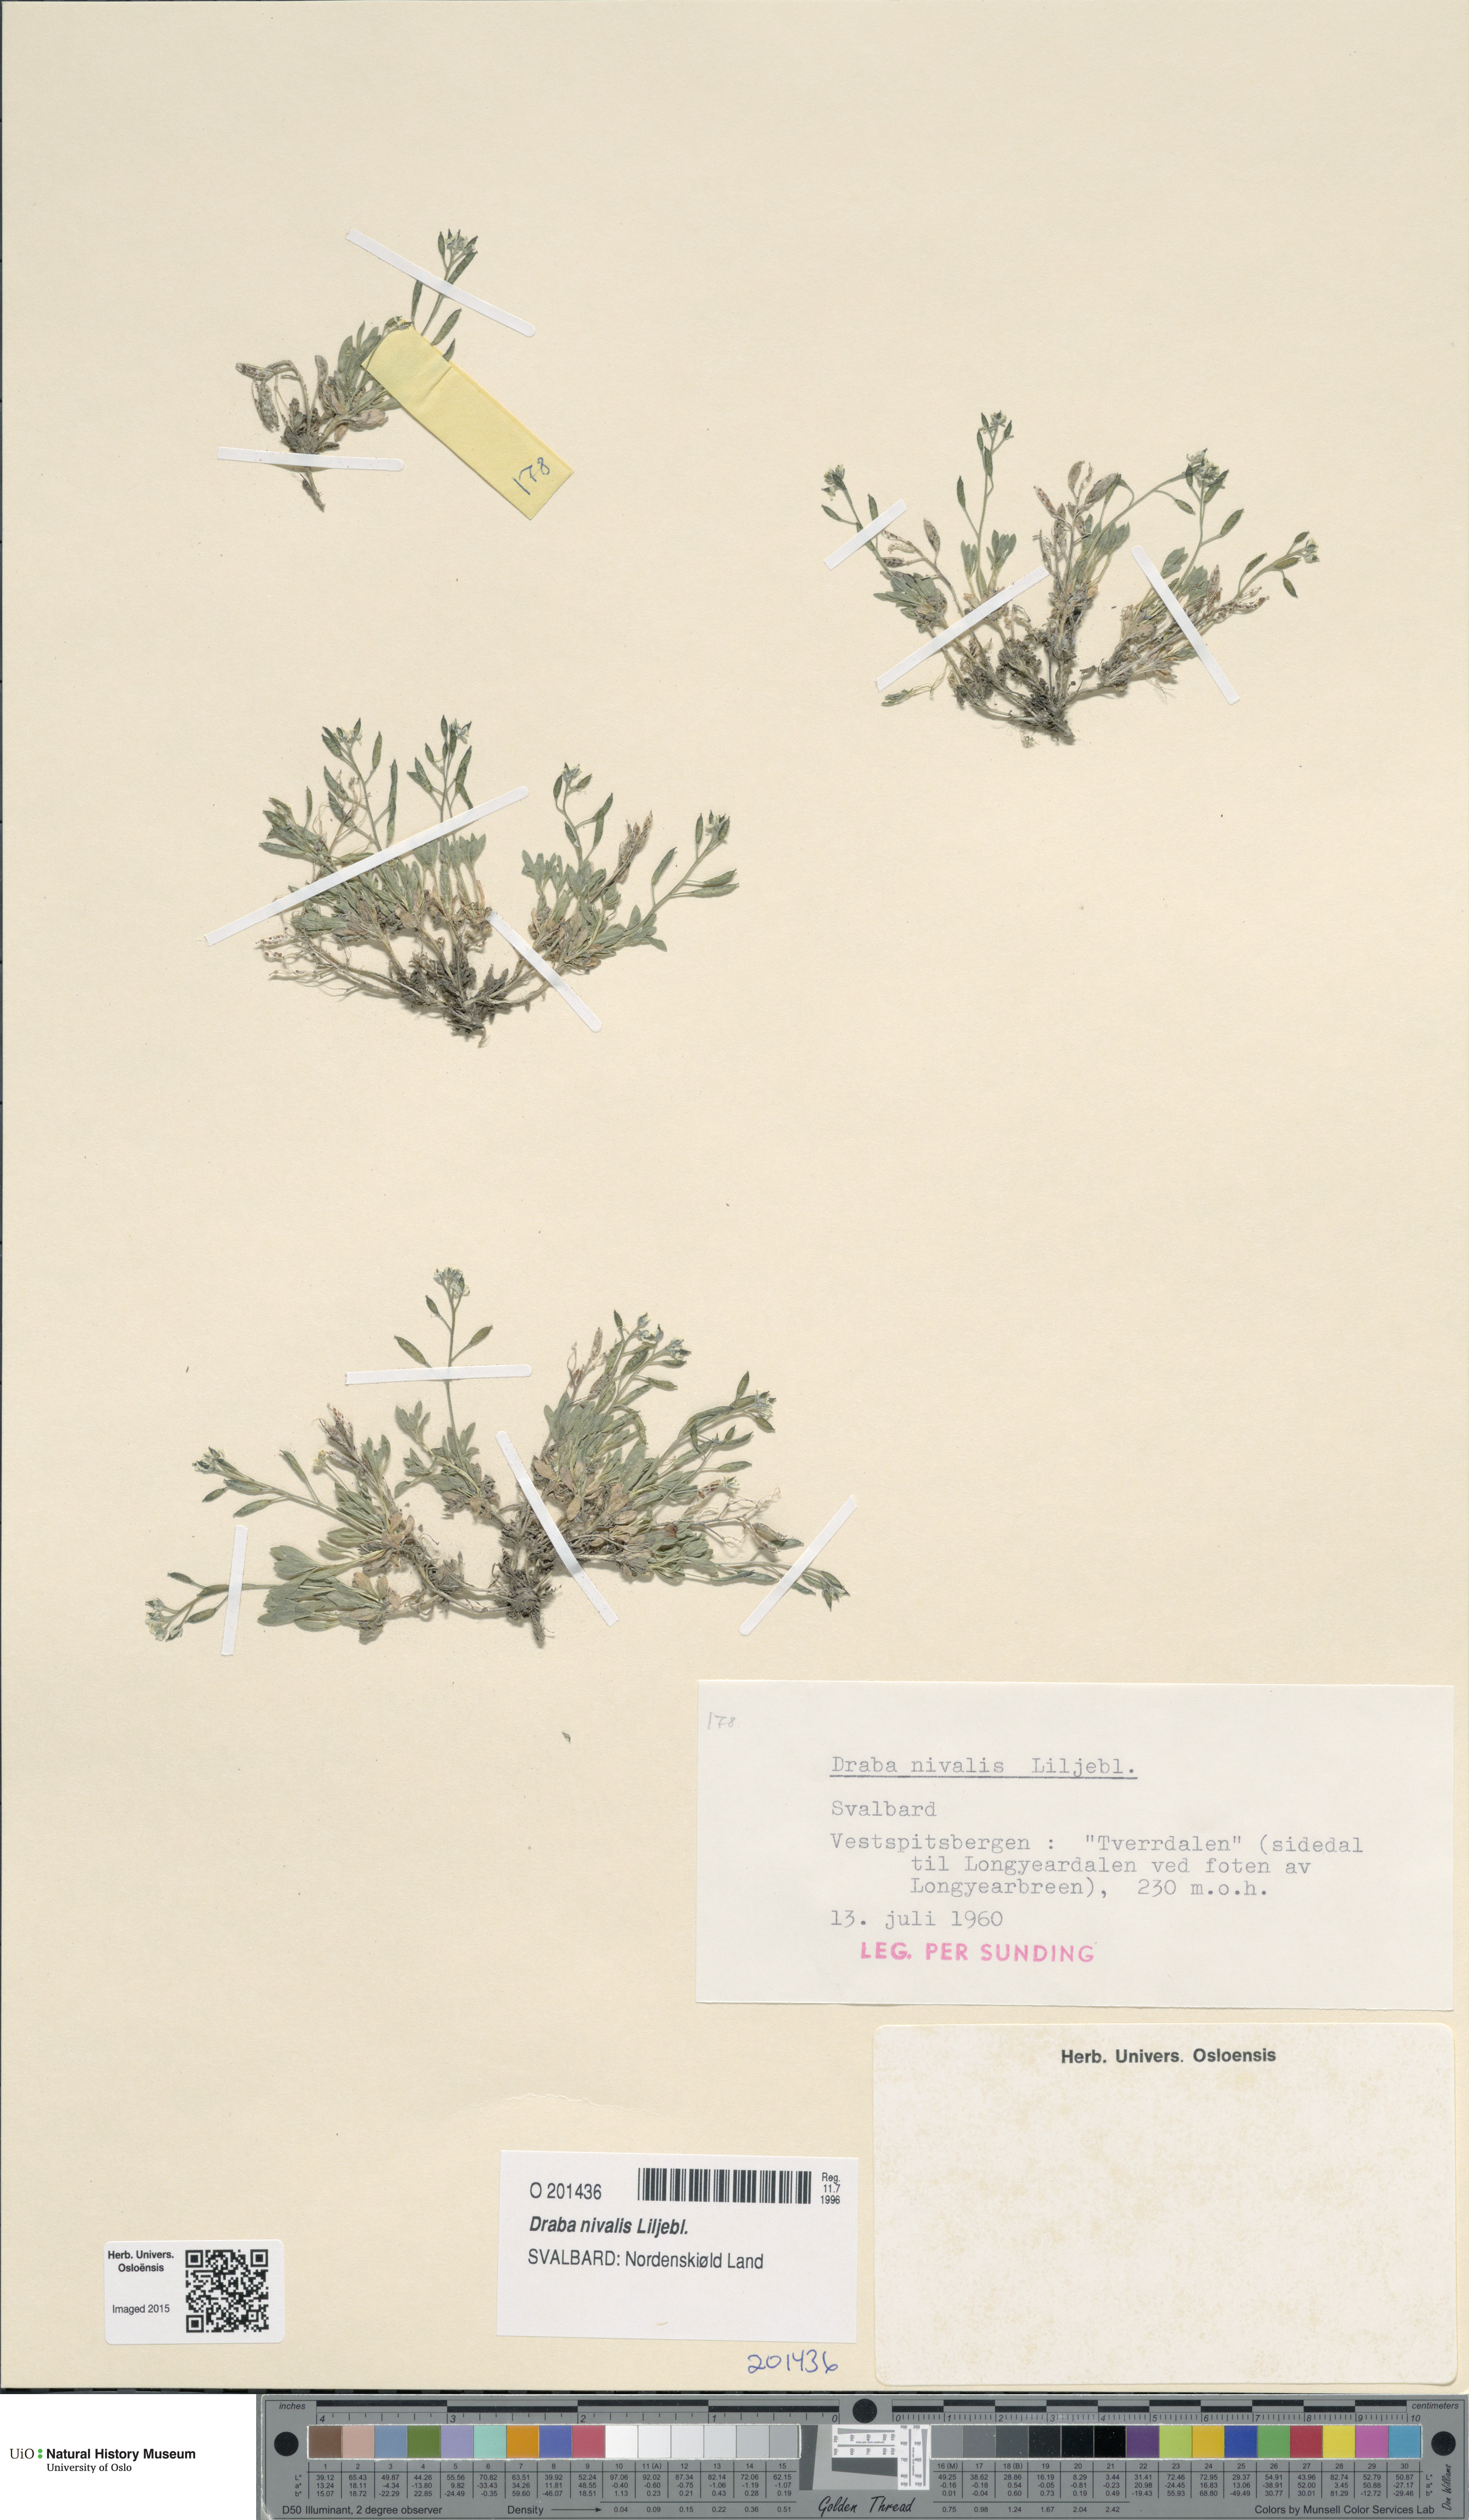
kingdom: Plantae
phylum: Tracheophyta
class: Magnoliopsida
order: Brassicales
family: Brassicaceae
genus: Draba
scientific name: Draba nivalis
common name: Snow draba
